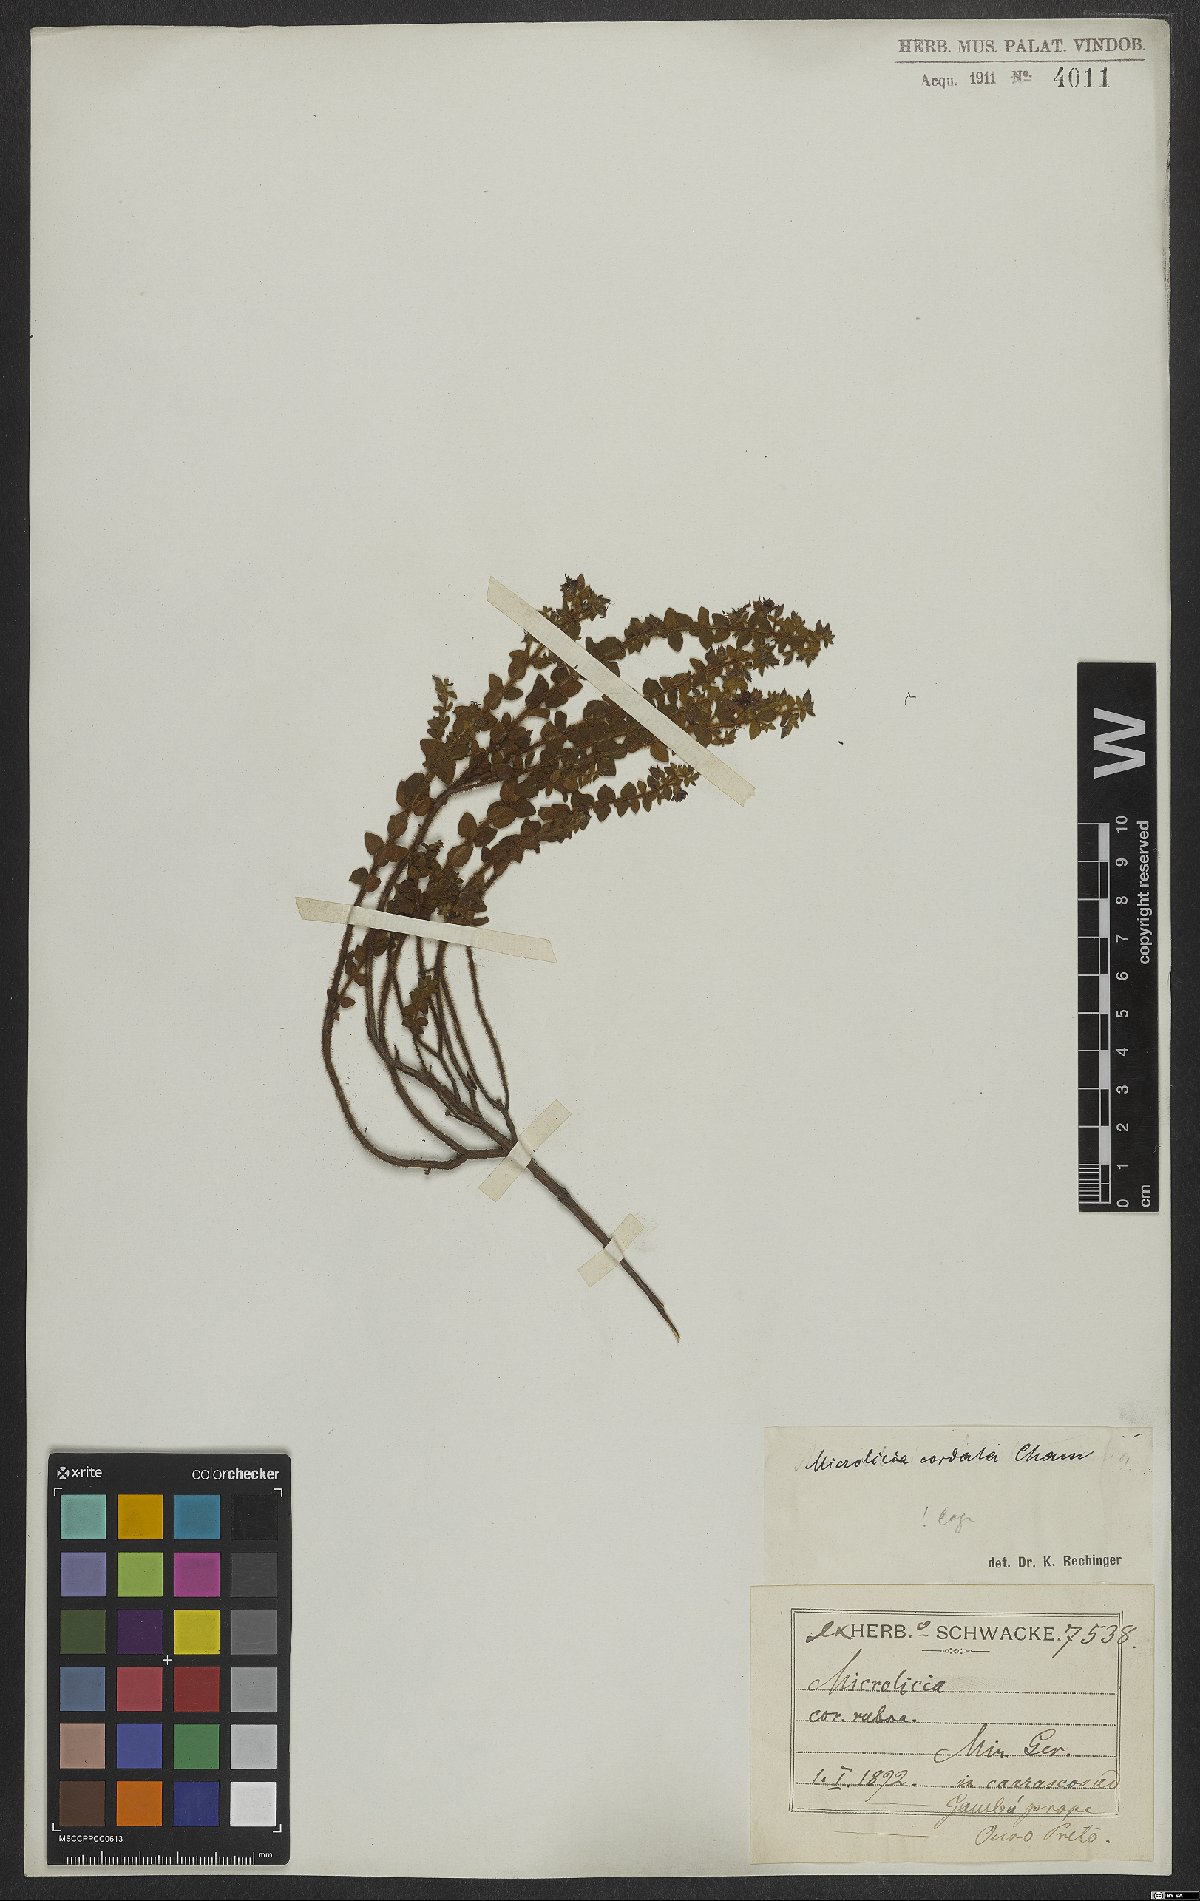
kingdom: Plantae
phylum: Tracheophyta
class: Magnoliopsida
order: Myrtales
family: Melastomataceae
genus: Microlicia
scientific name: Microlicia cordata
